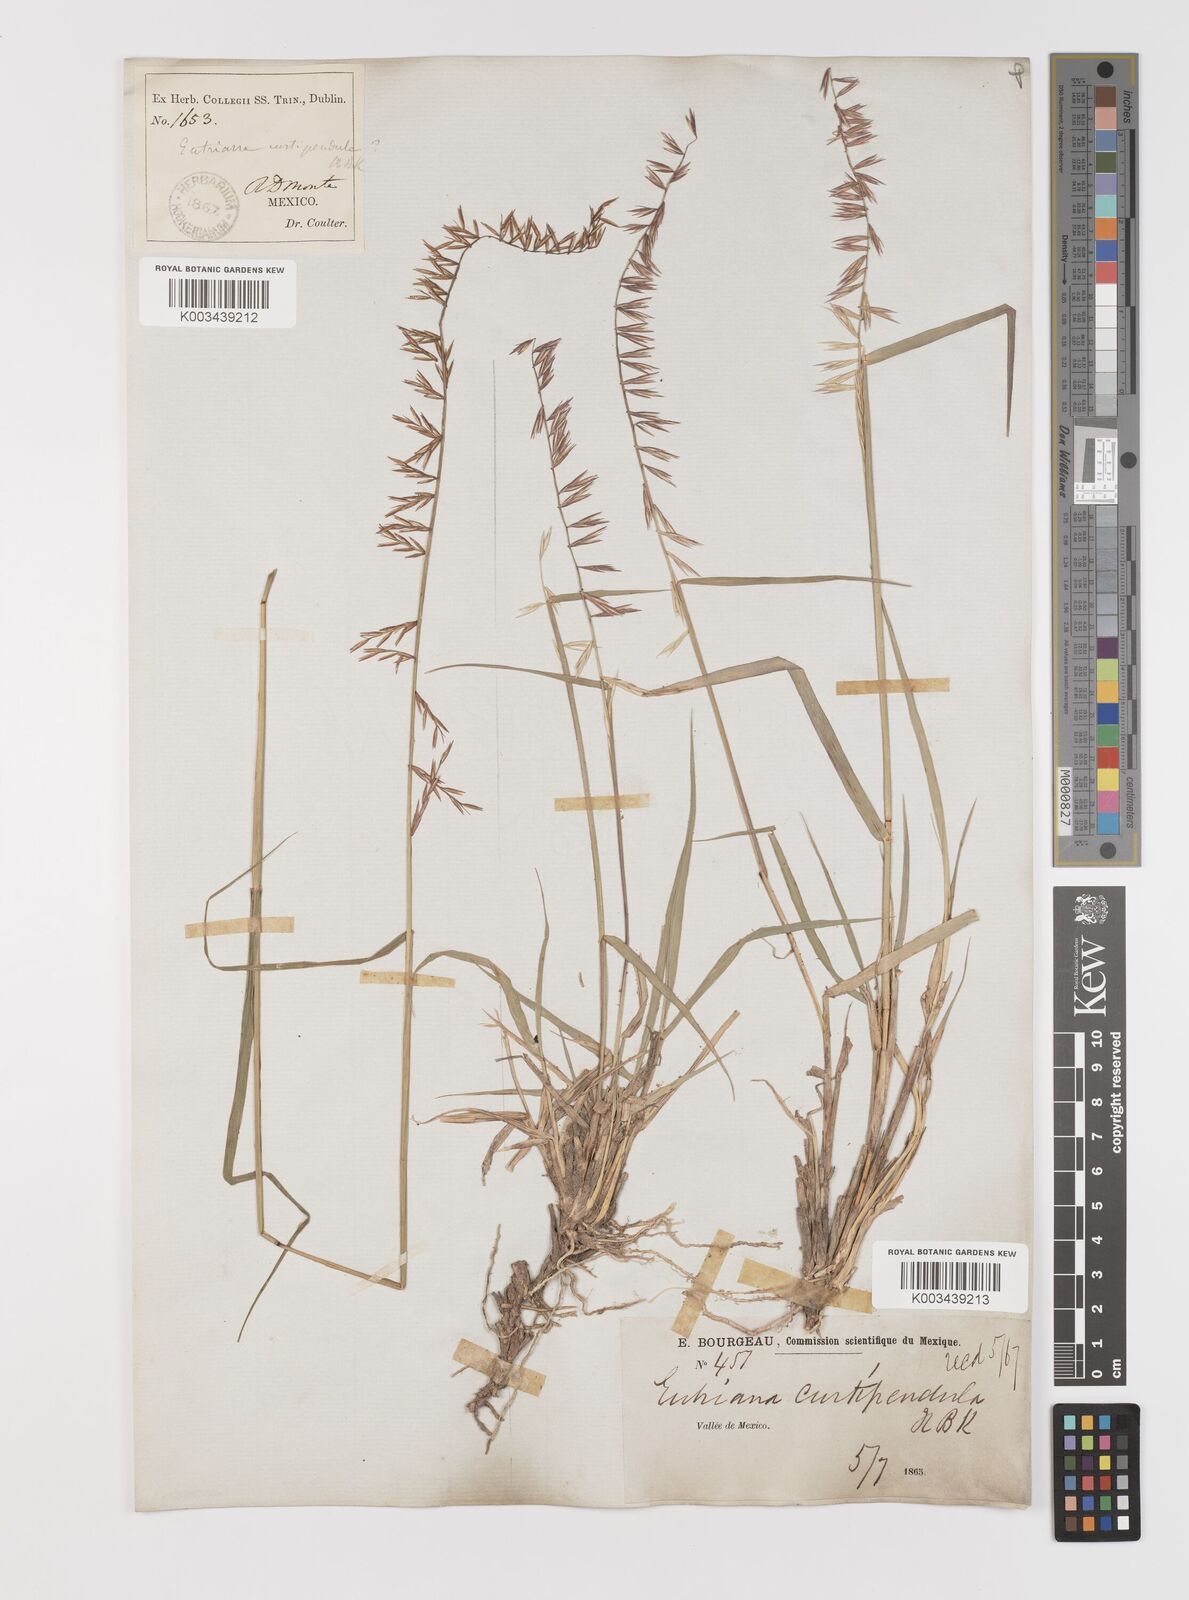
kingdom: Plantae
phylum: Tracheophyta
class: Liliopsida
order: Poales
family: Poaceae
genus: Bouteloua
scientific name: Bouteloua curtipendula
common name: Side-oats grama
